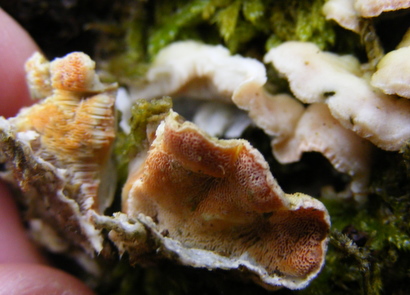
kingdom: Fungi
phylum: Basidiomycota
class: Agaricomycetes
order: Polyporales
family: Incrustoporiaceae
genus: Skeletocutis
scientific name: Skeletocutis amorpha
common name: orange krystalporesvamp
